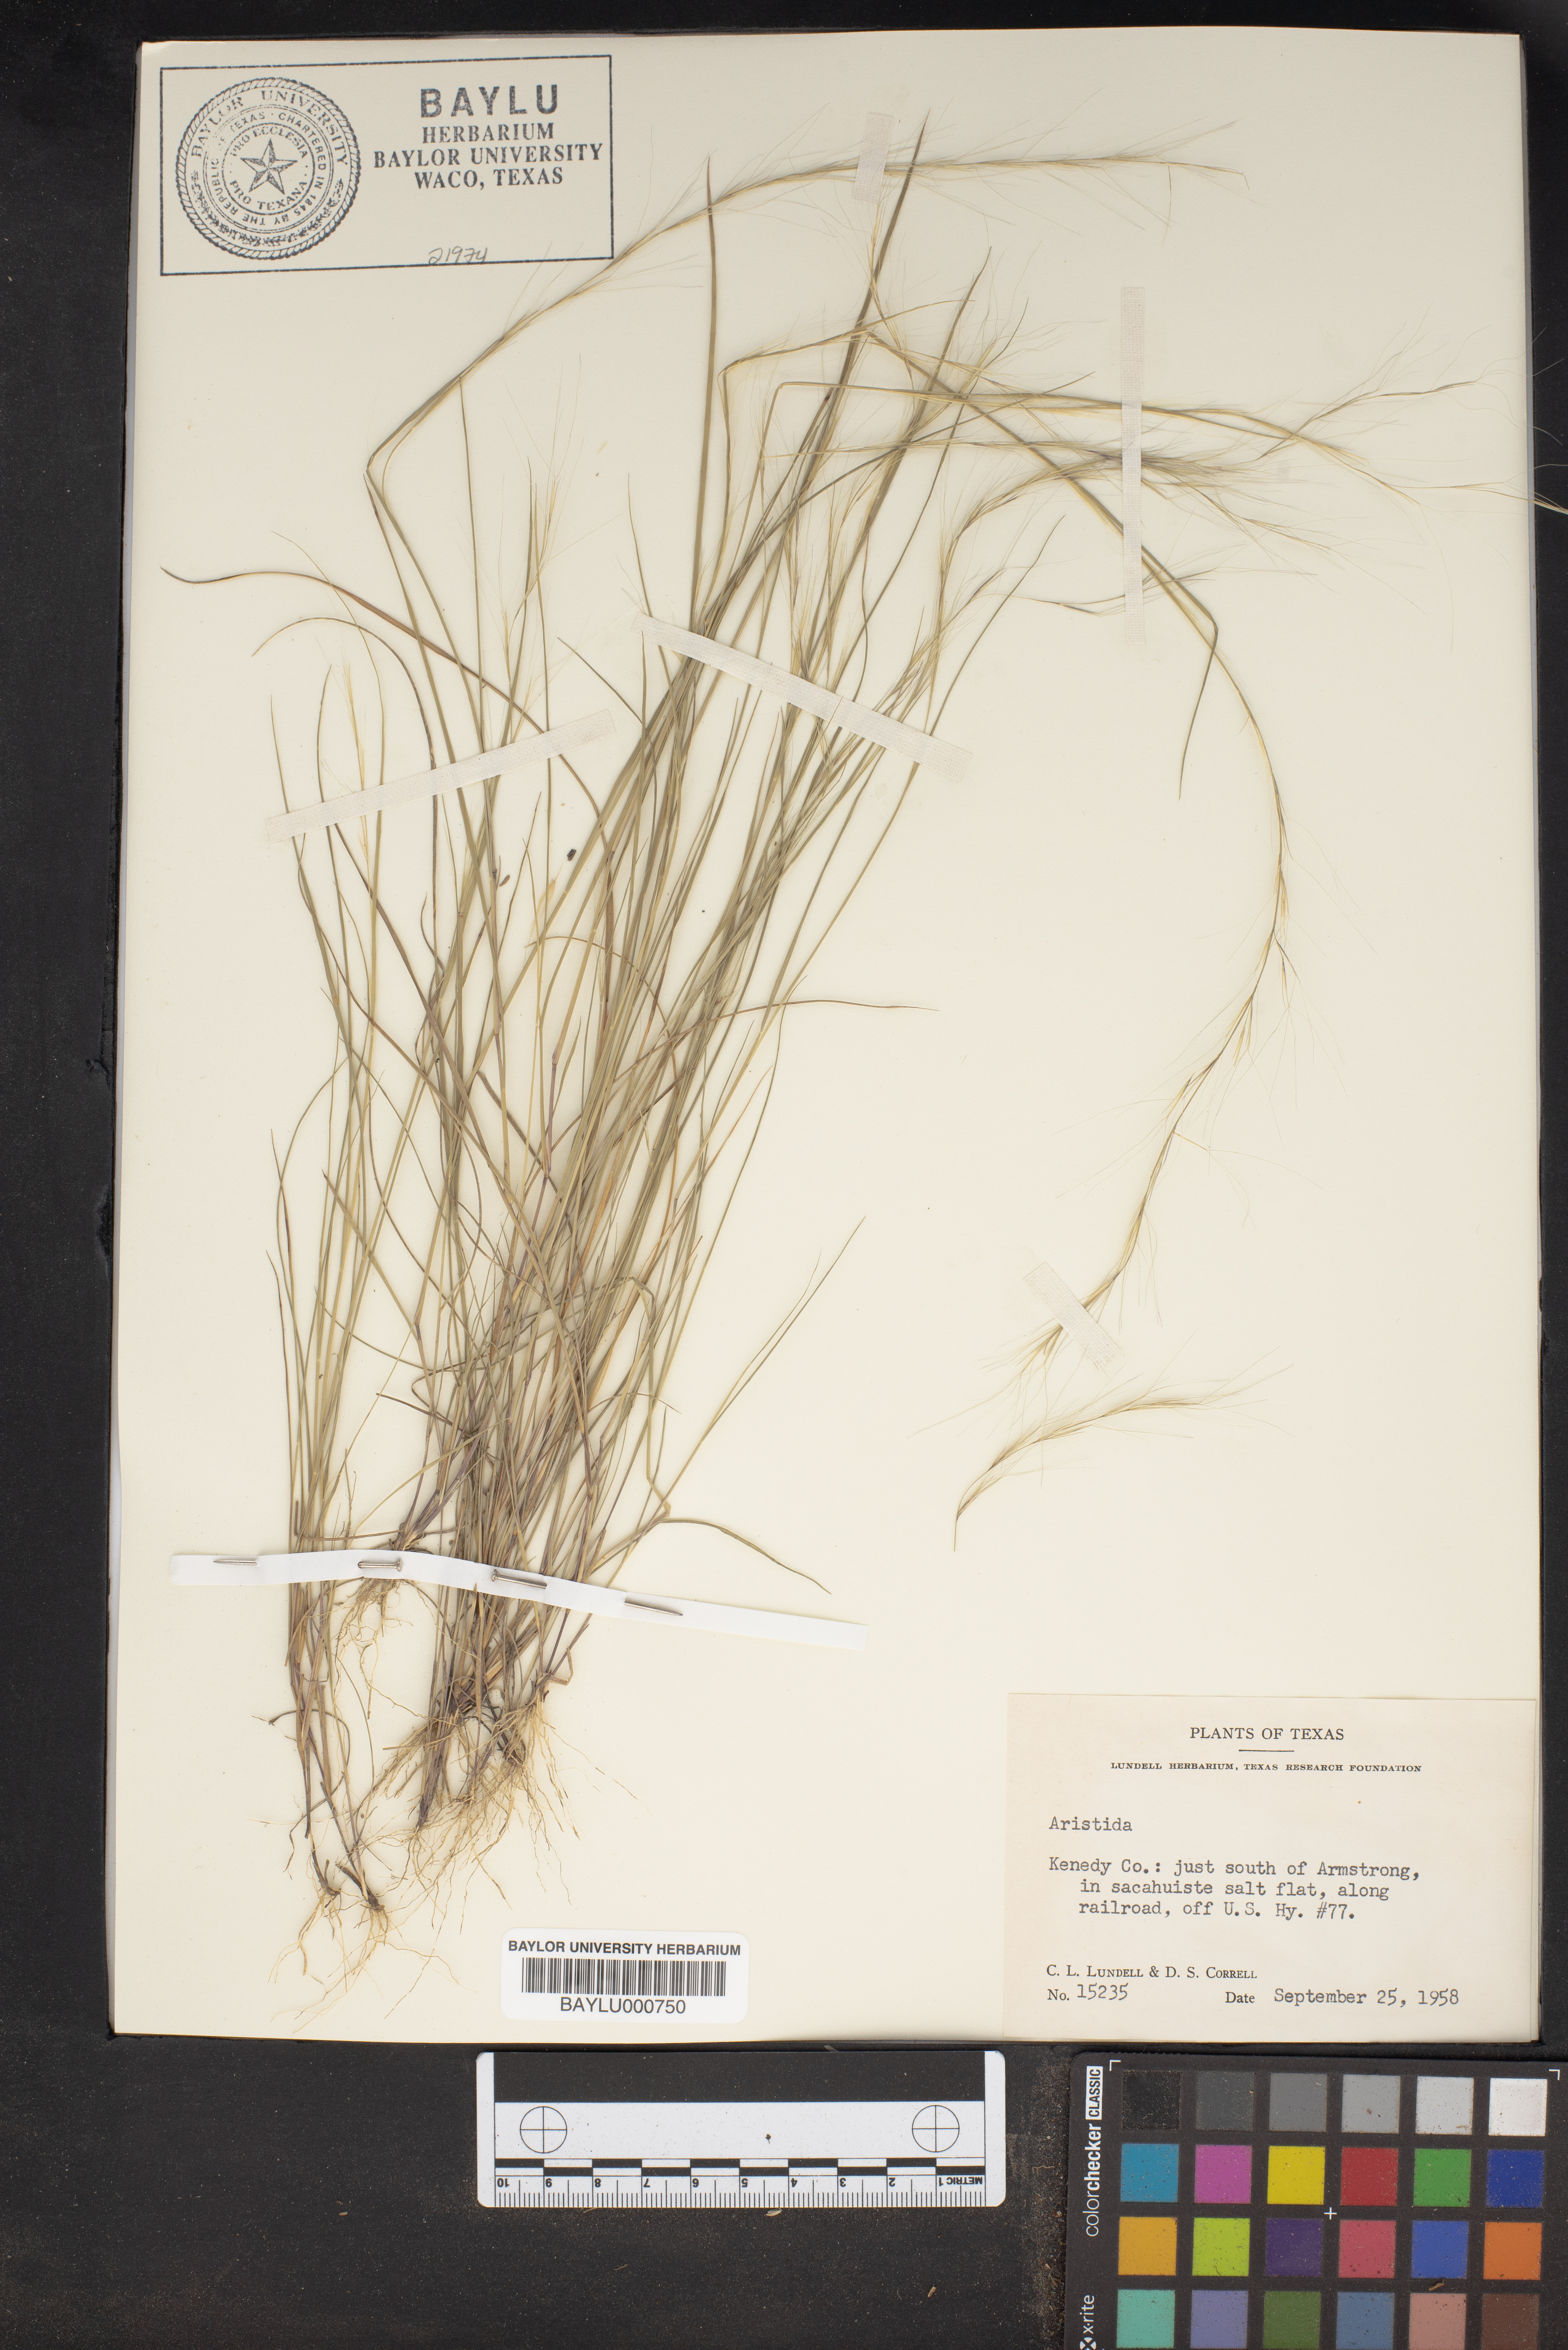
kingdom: Plantae
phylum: Tracheophyta
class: Liliopsida
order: Poales
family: Poaceae
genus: Aristida
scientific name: Aristida
